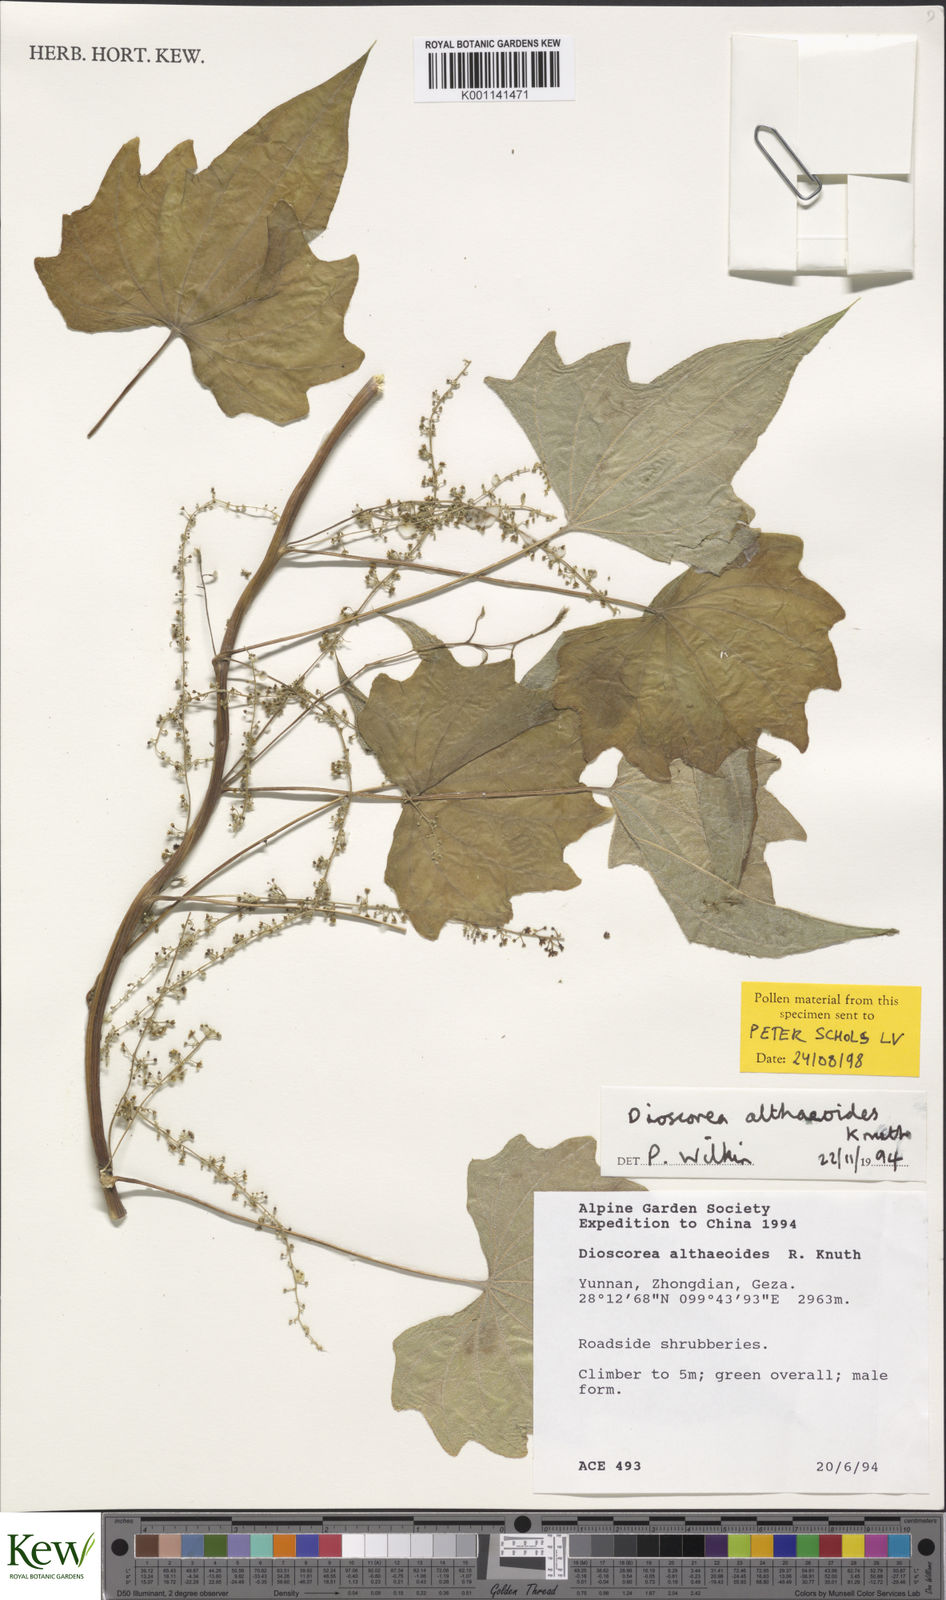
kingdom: Plantae
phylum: Tracheophyta
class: Liliopsida
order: Dioscoreales
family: Dioscoreaceae
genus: Dioscorea
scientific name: Dioscorea althaeoides
